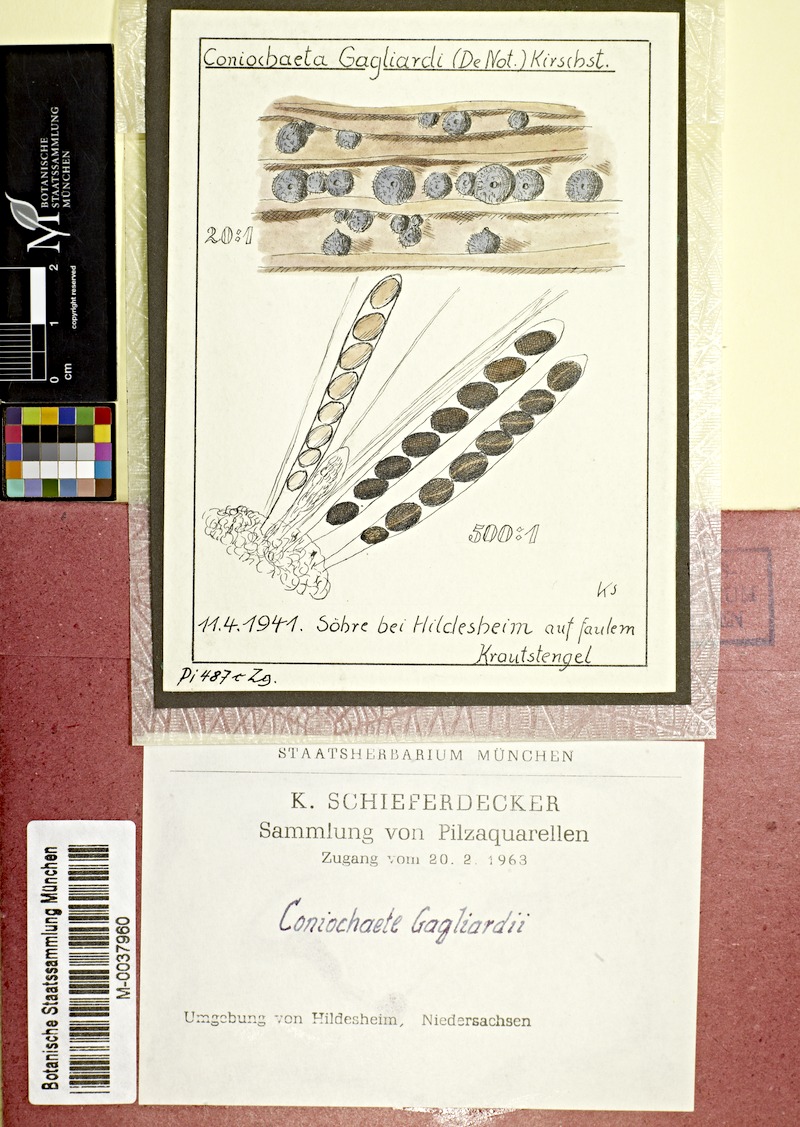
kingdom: Fungi
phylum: Ascomycota
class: Sordariomycetes
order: Sordariales
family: Sordariaceae
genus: Sordaria
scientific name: Sordaria
